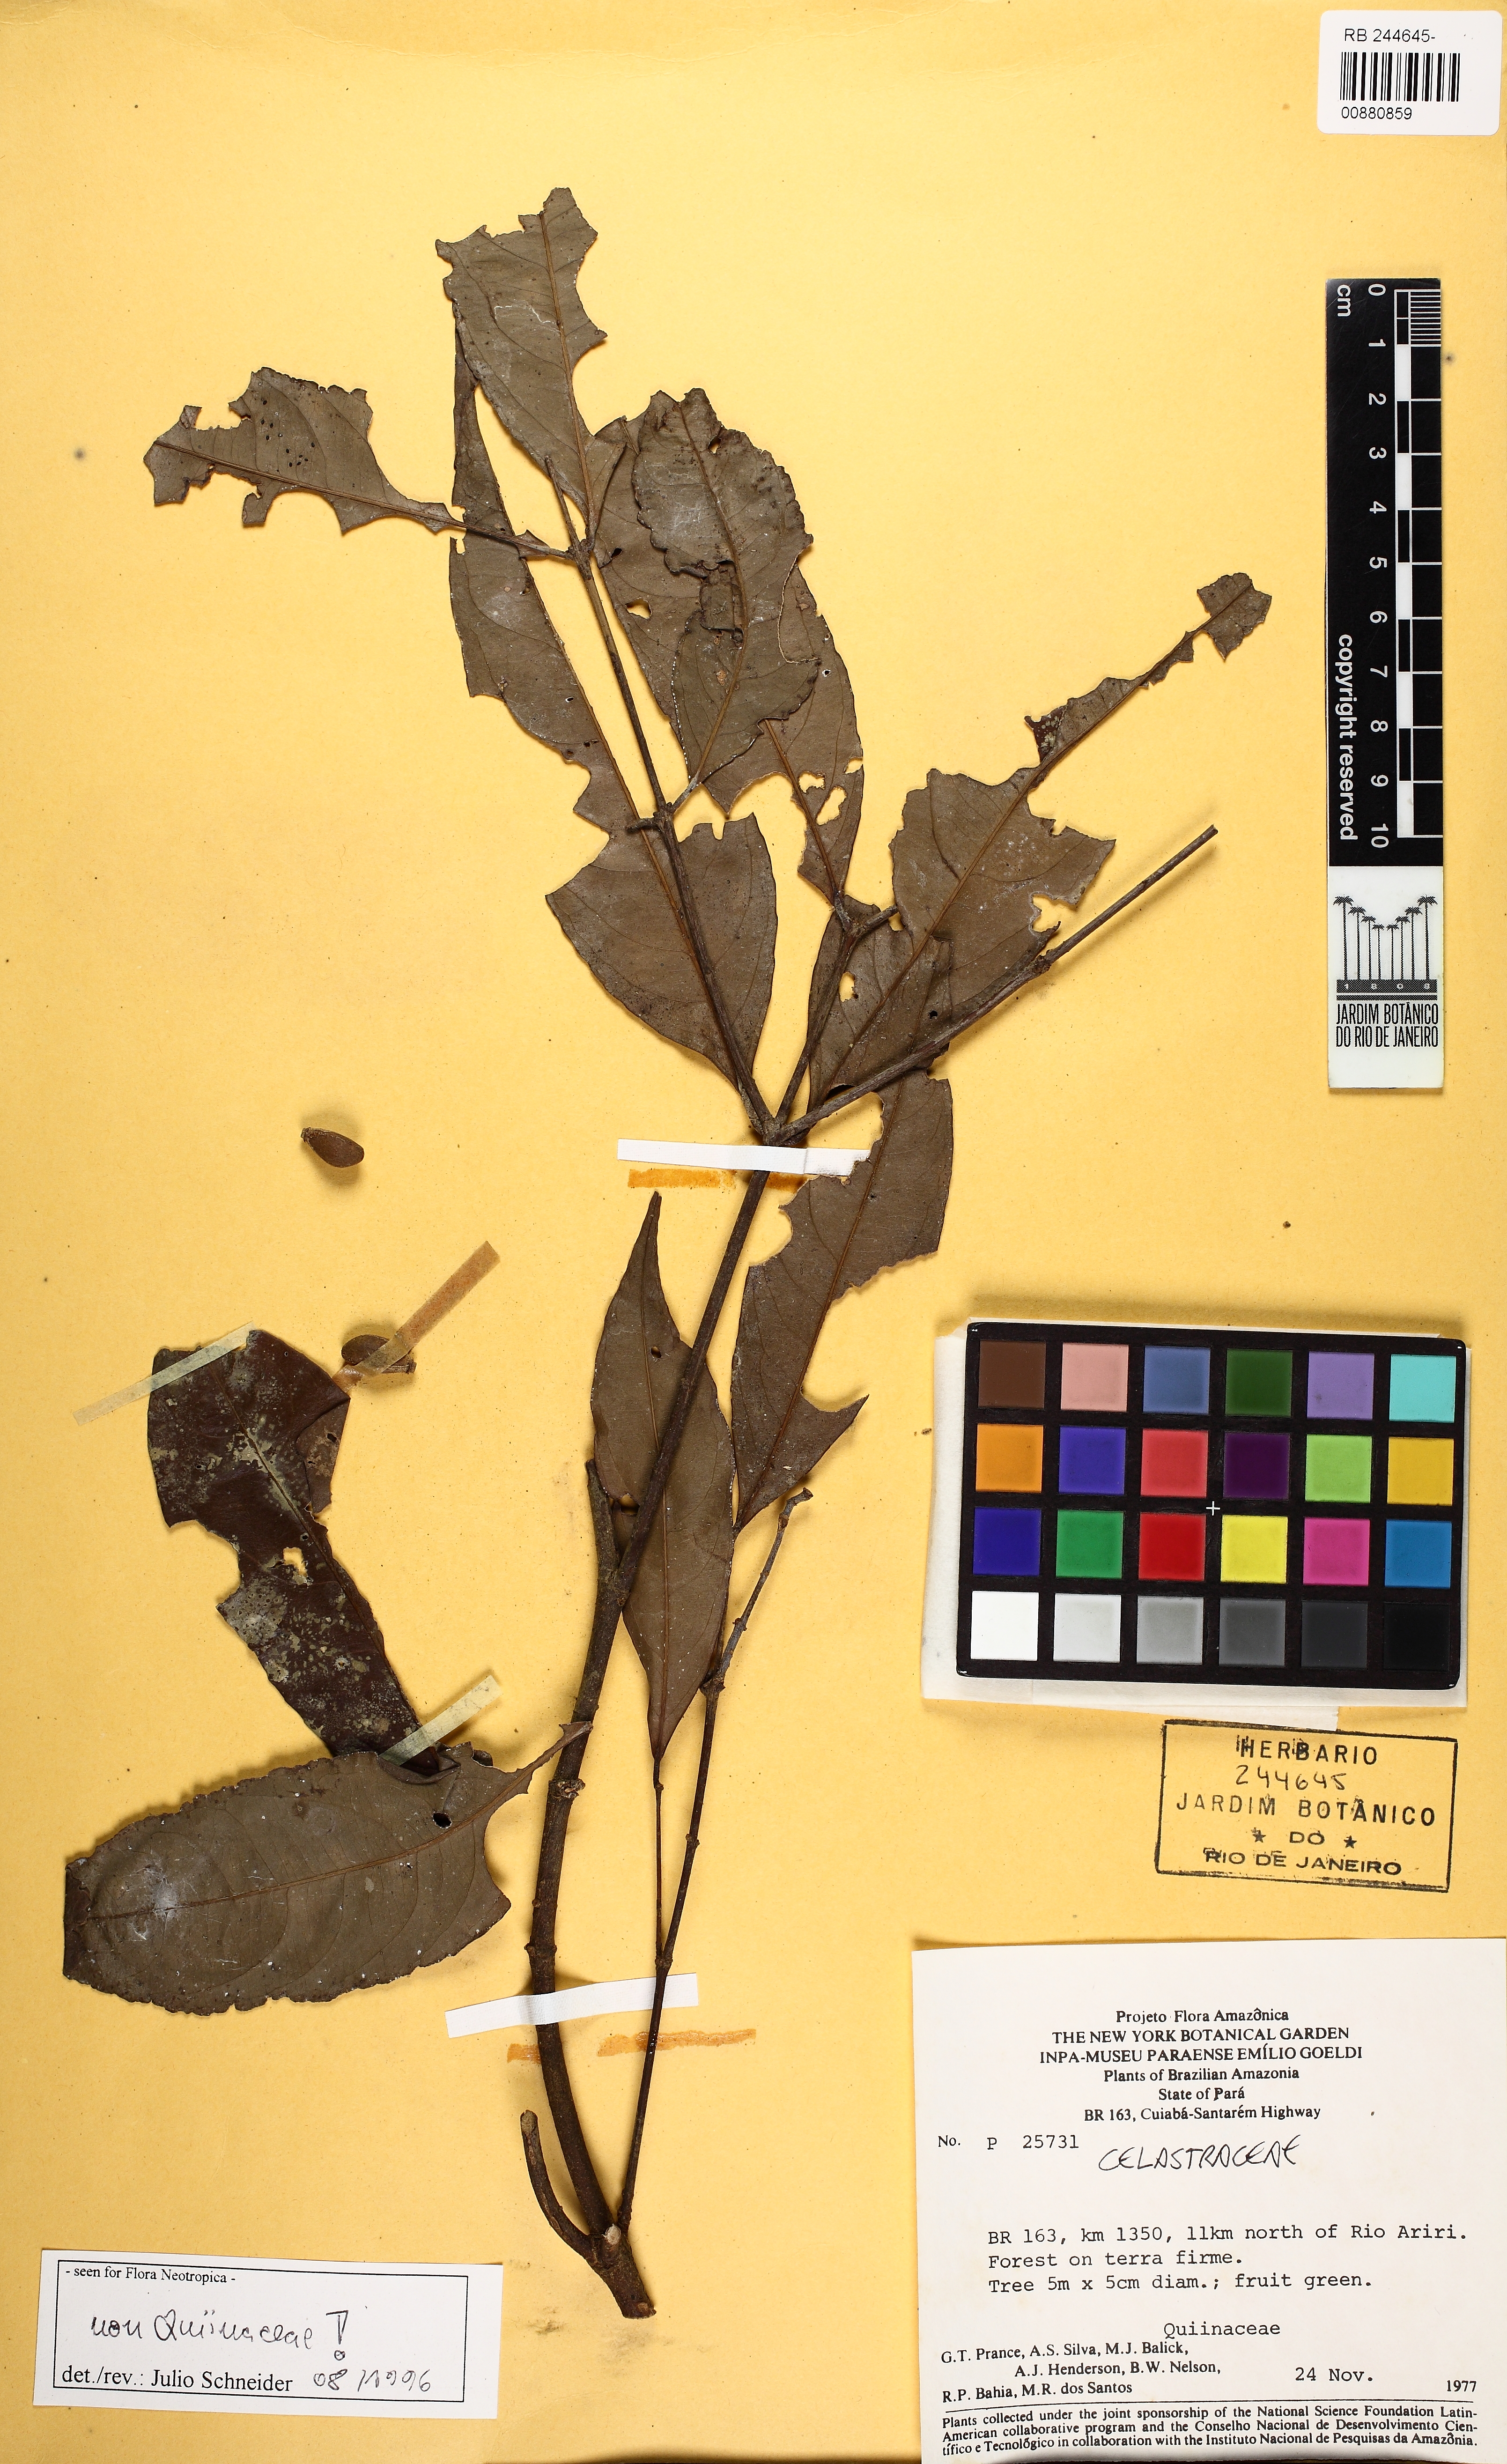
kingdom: Plantae
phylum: Tracheophyta
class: Magnoliopsida
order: Celastrales
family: Celastraceae
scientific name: Celastraceae
